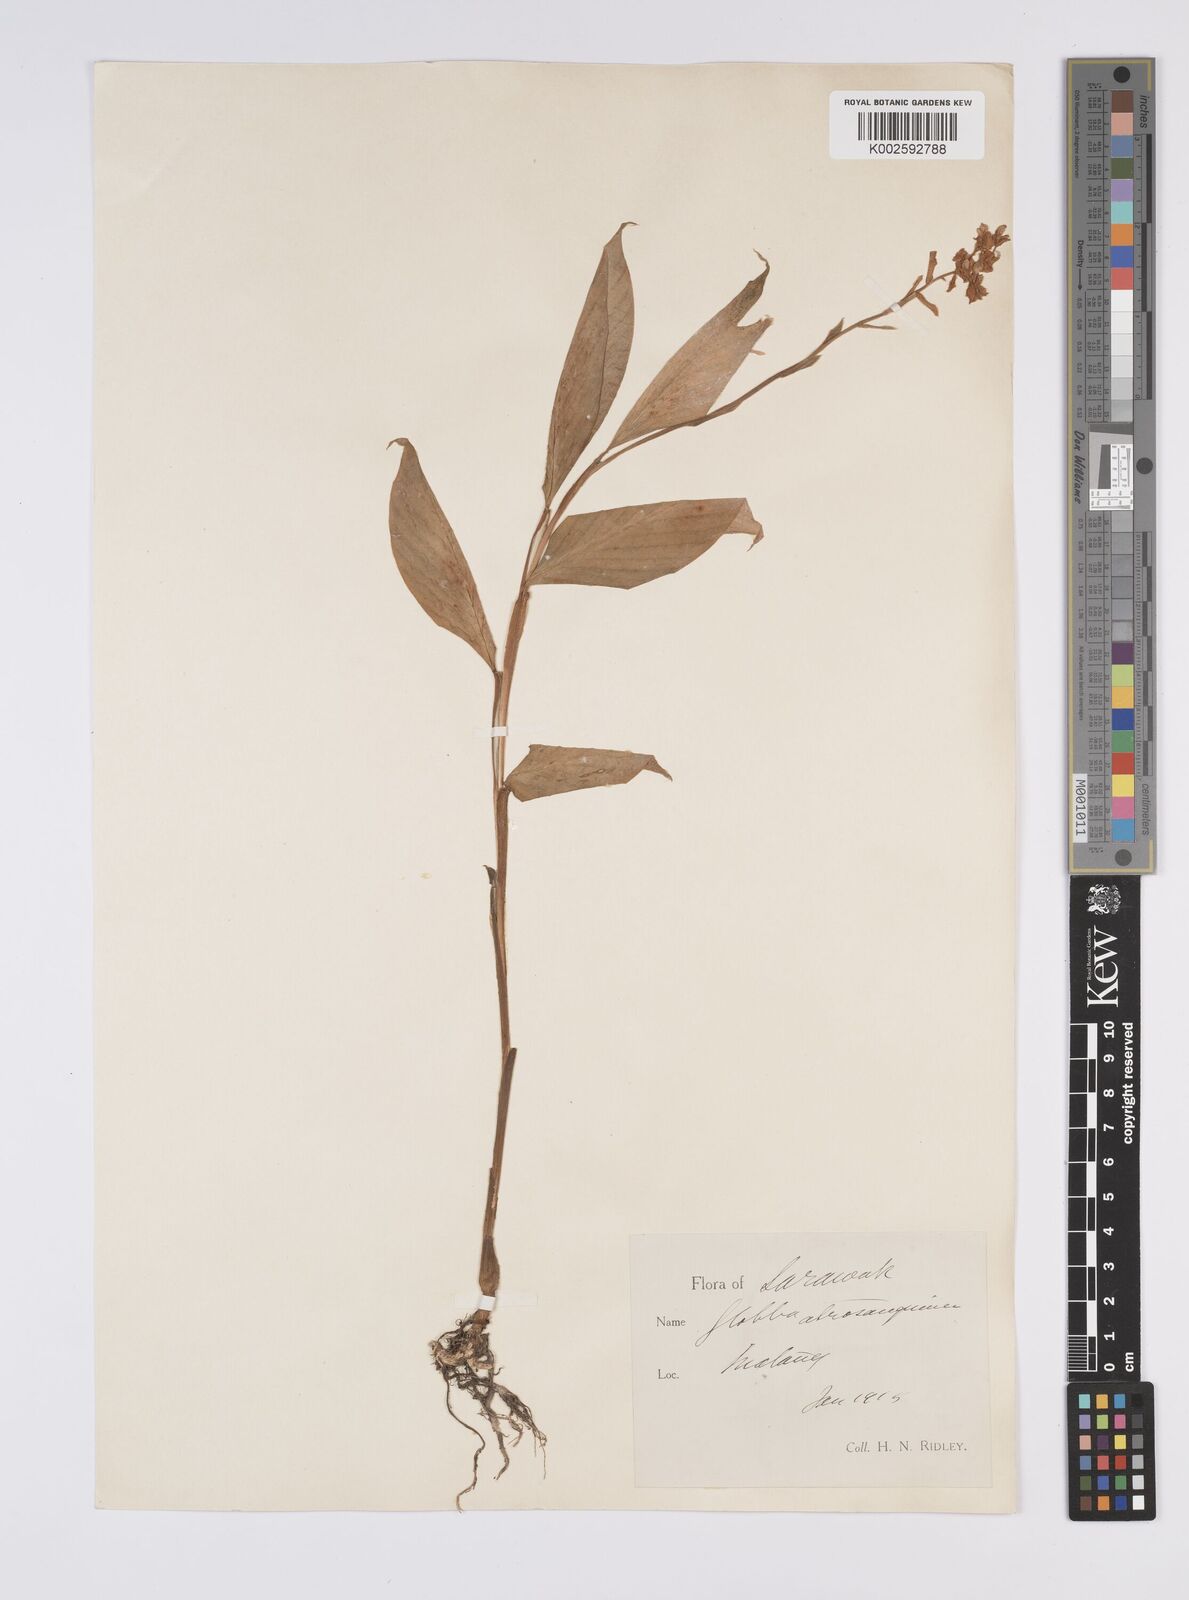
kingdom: Plantae
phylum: Tracheophyta
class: Liliopsida
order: Zingiberales
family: Zingiberaceae
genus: Globba
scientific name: Globba atrosanguinea
